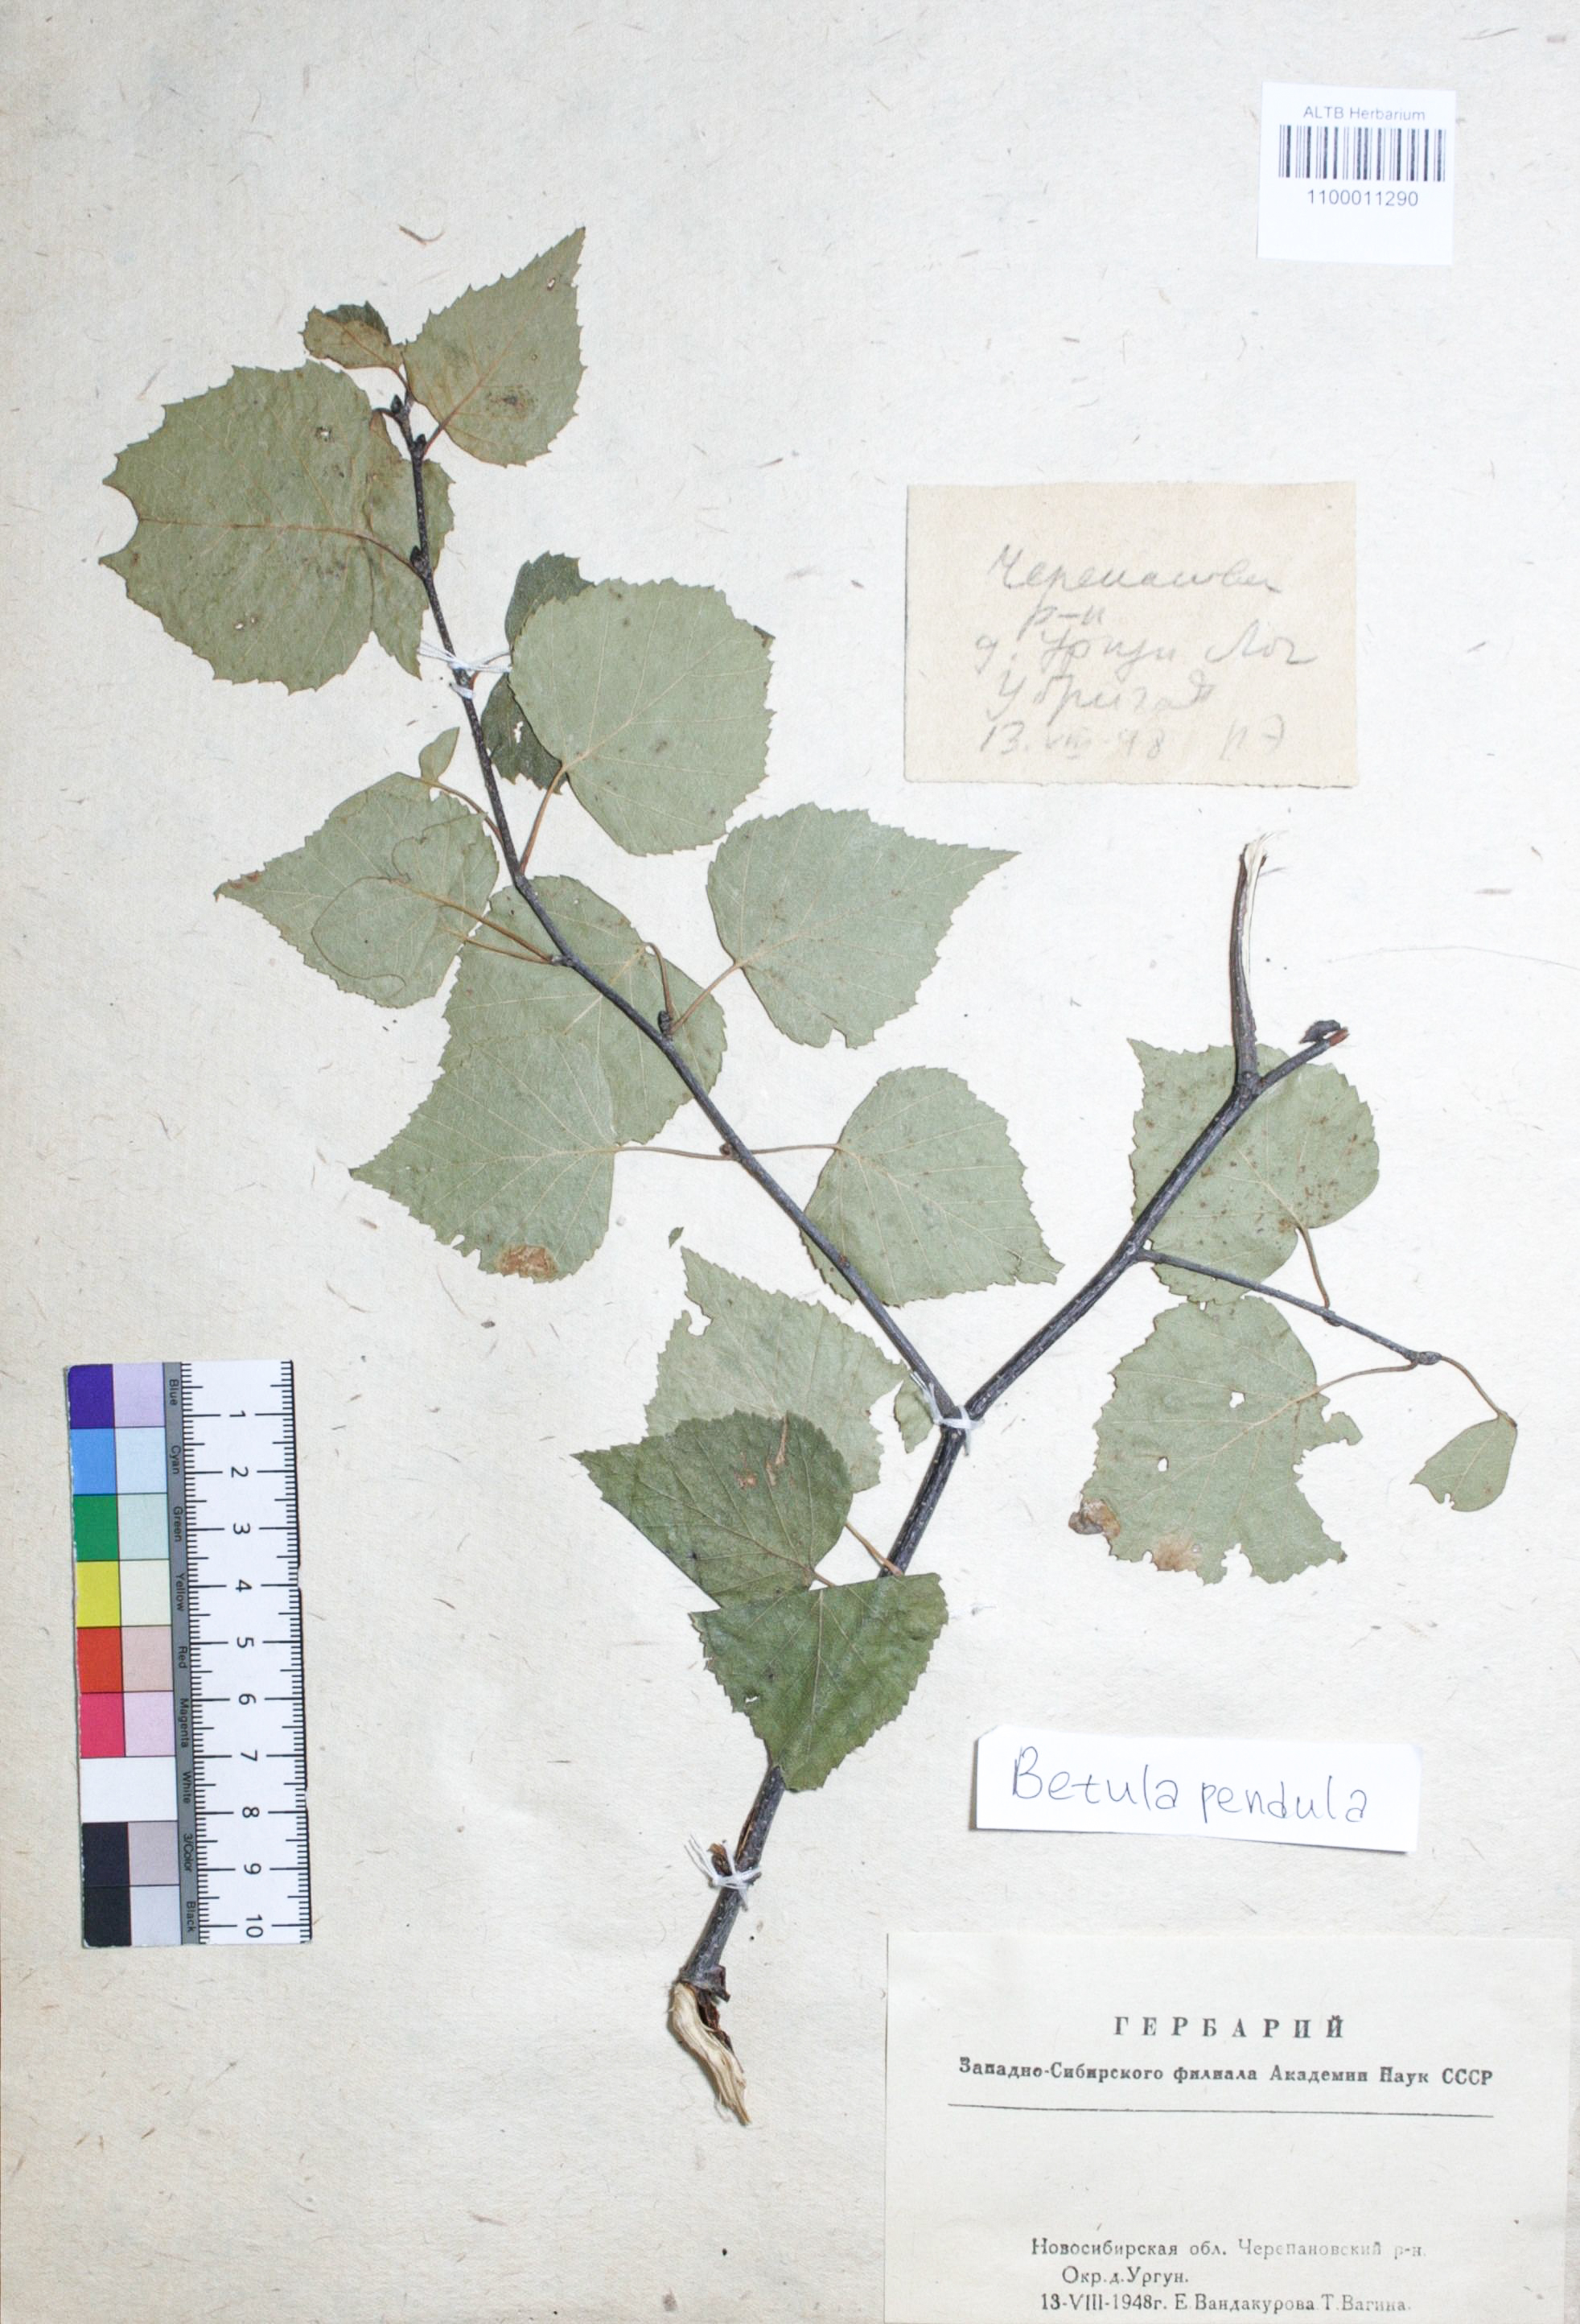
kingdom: Plantae
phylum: Tracheophyta
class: Magnoliopsida
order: Fagales
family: Betulaceae
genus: Betula
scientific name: Betula pendula
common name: Silver birch
